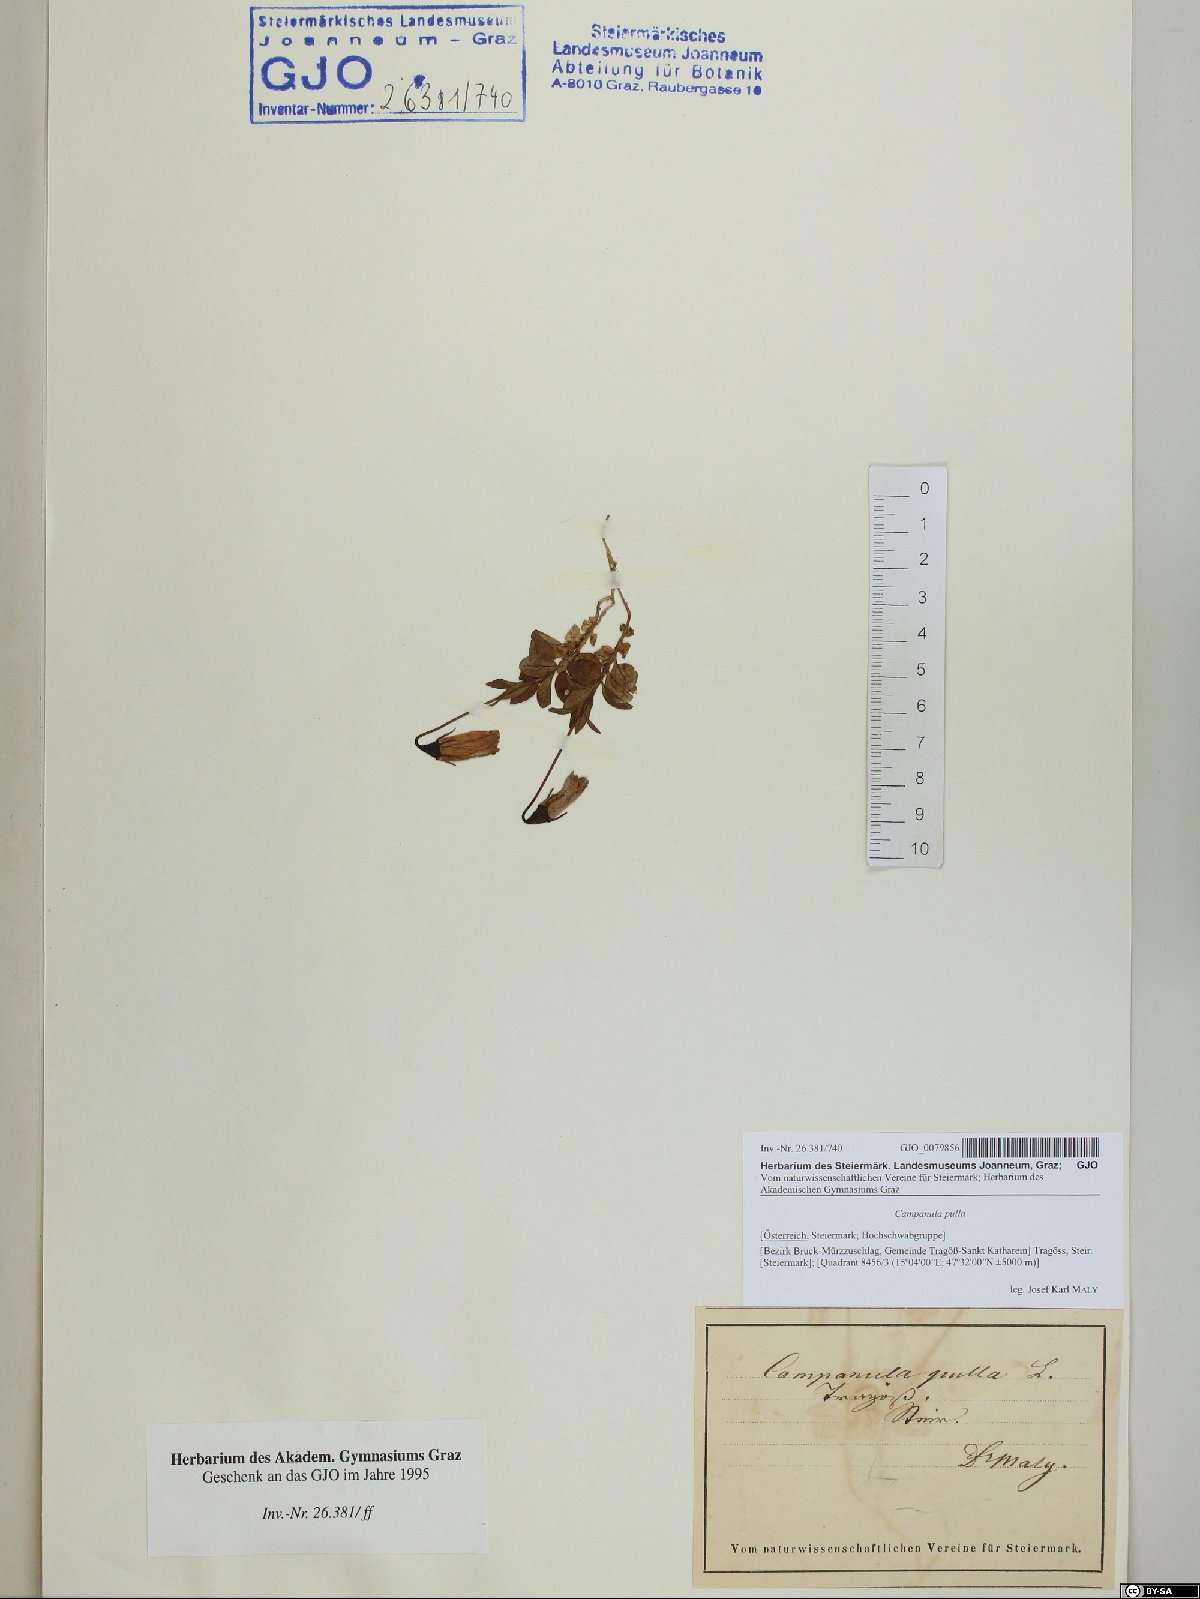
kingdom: Plantae
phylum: Tracheophyta
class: Magnoliopsida
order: Asterales
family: Campanulaceae
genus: Campanula
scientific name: Campanula pulla
